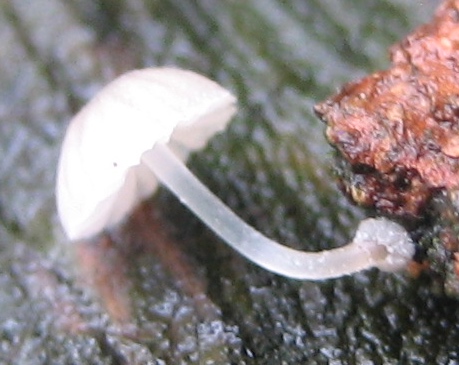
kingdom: Fungi
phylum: Basidiomycota
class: Agaricomycetes
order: Agaricales
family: Mycenaceae
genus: Mycena
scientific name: Mycena clavularis
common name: dunskivet huesvamp
